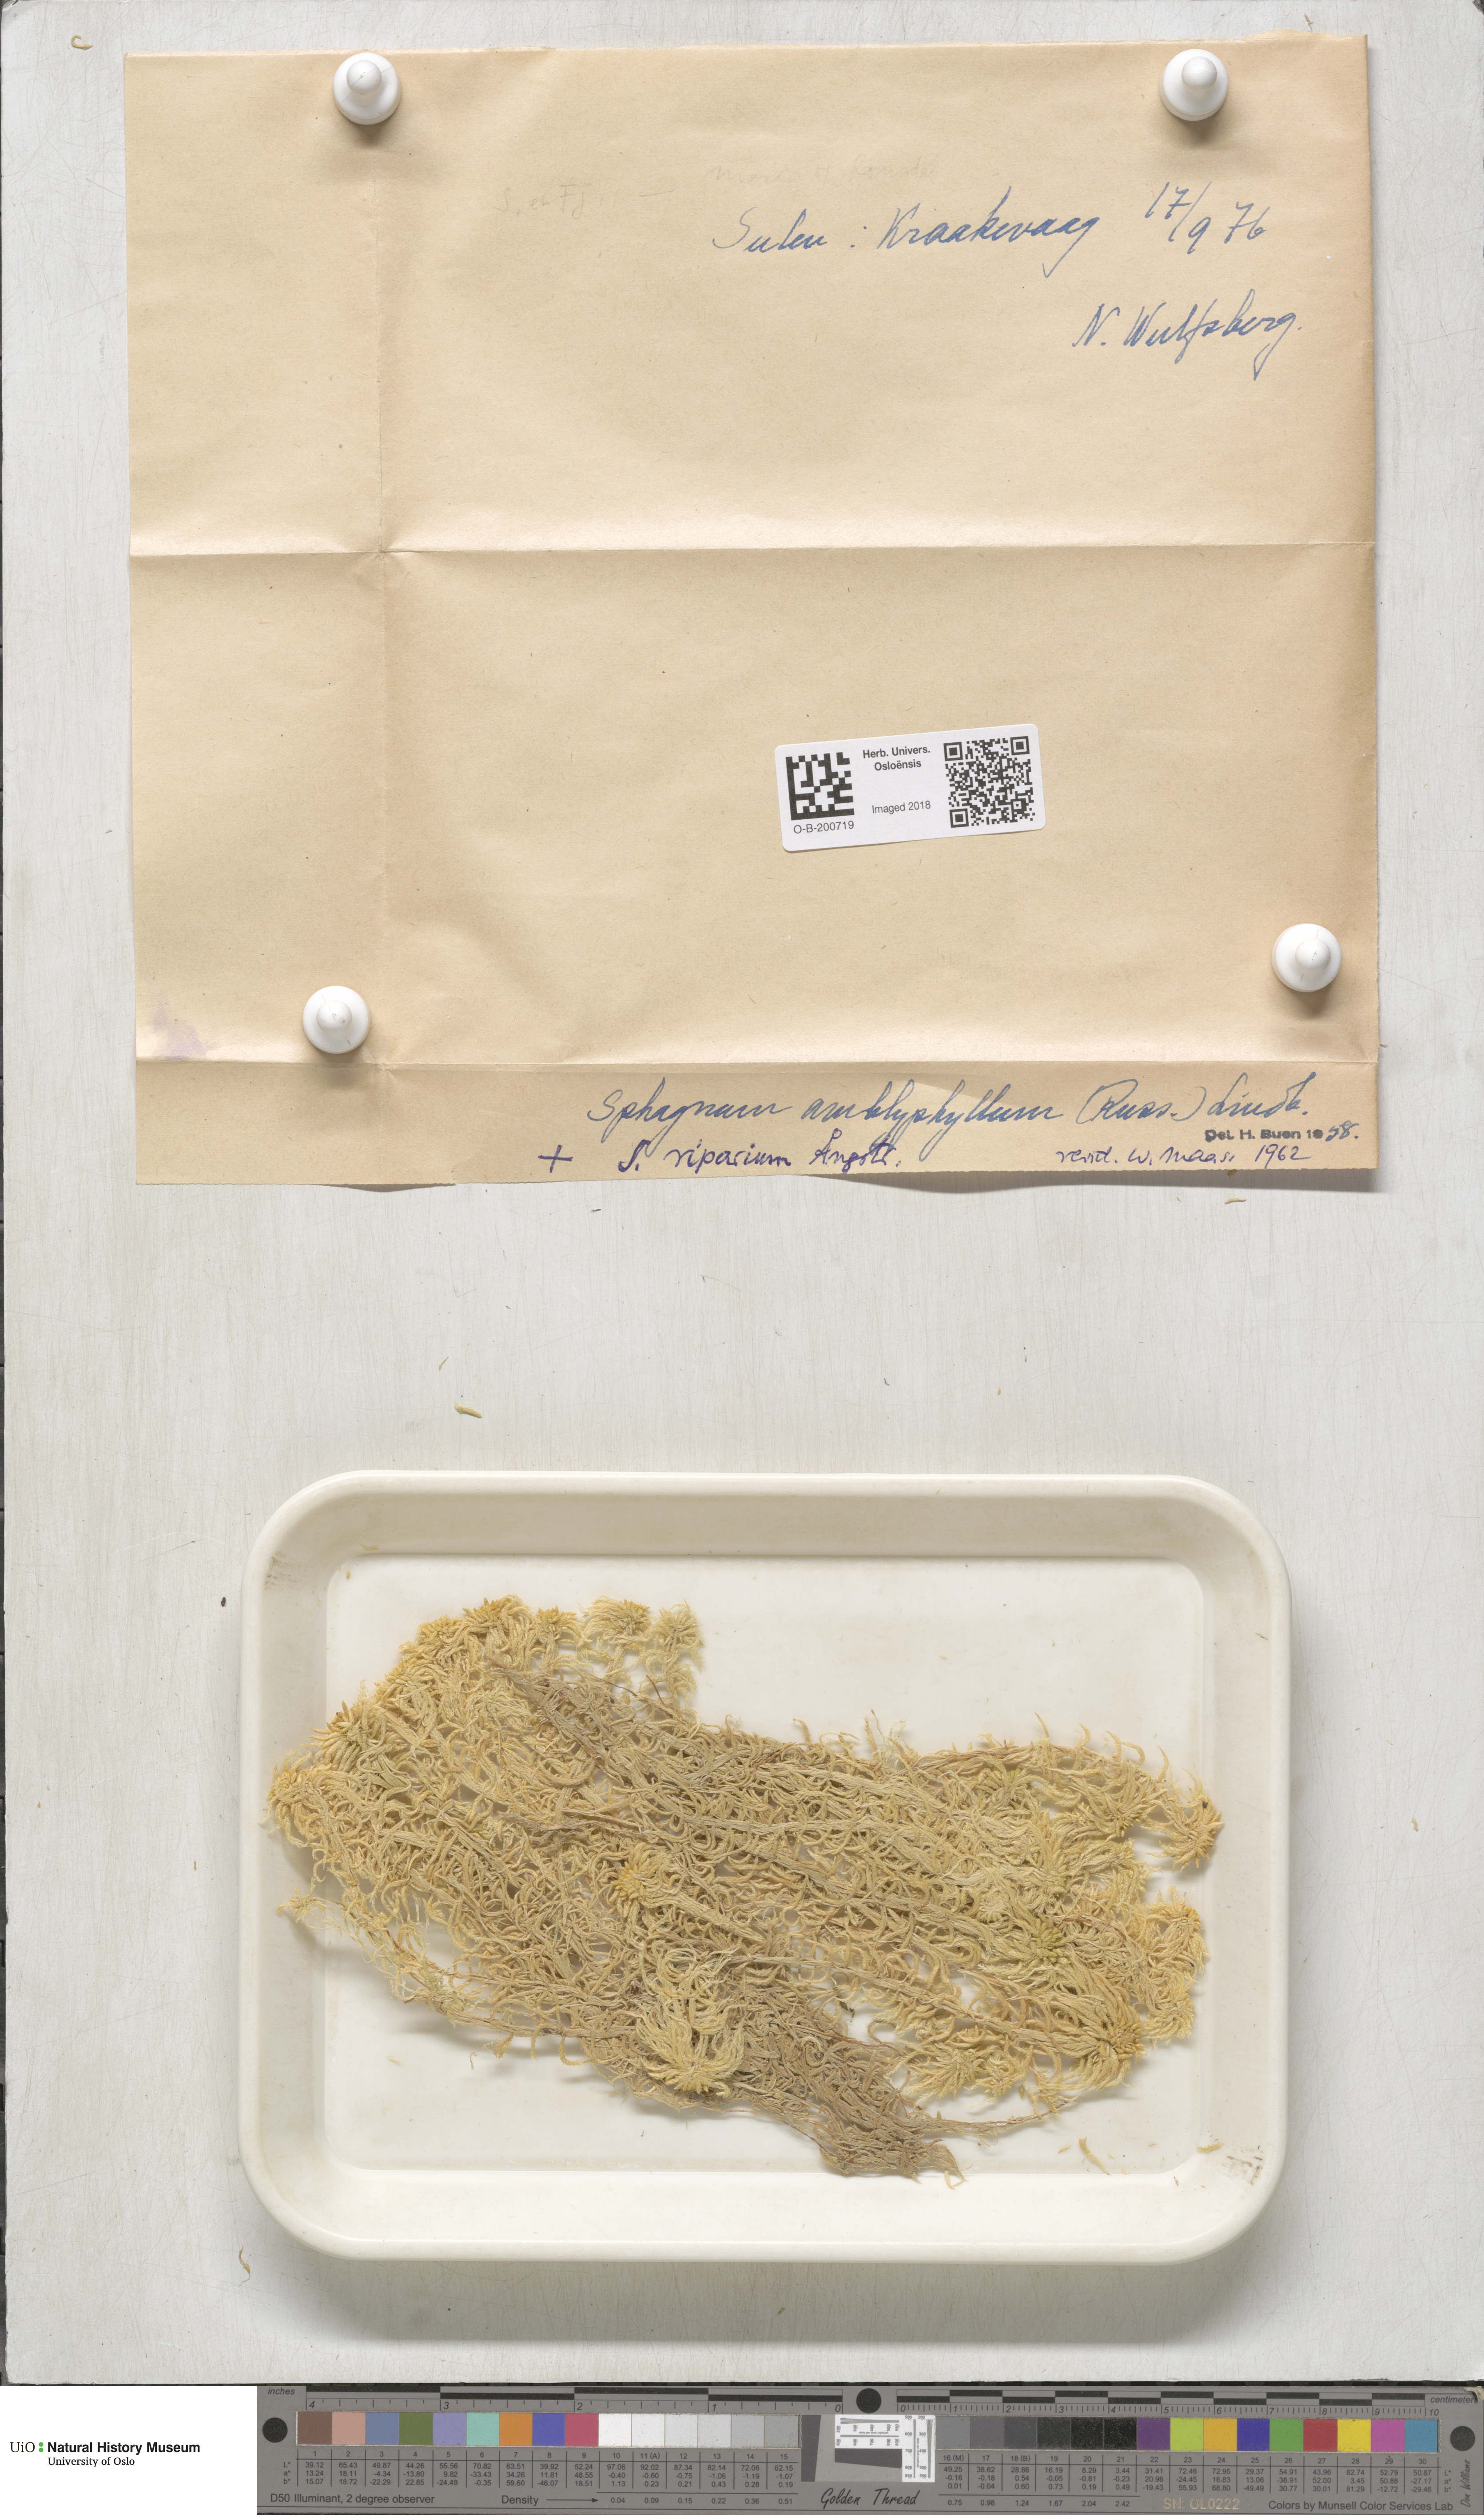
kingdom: Plantae
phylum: Bryophyta
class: Sphagnopsida
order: Sphagnales
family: Sphagnaceae
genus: Sphagnum
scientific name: Sphagnum flexuosum
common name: Flexible peat moss
